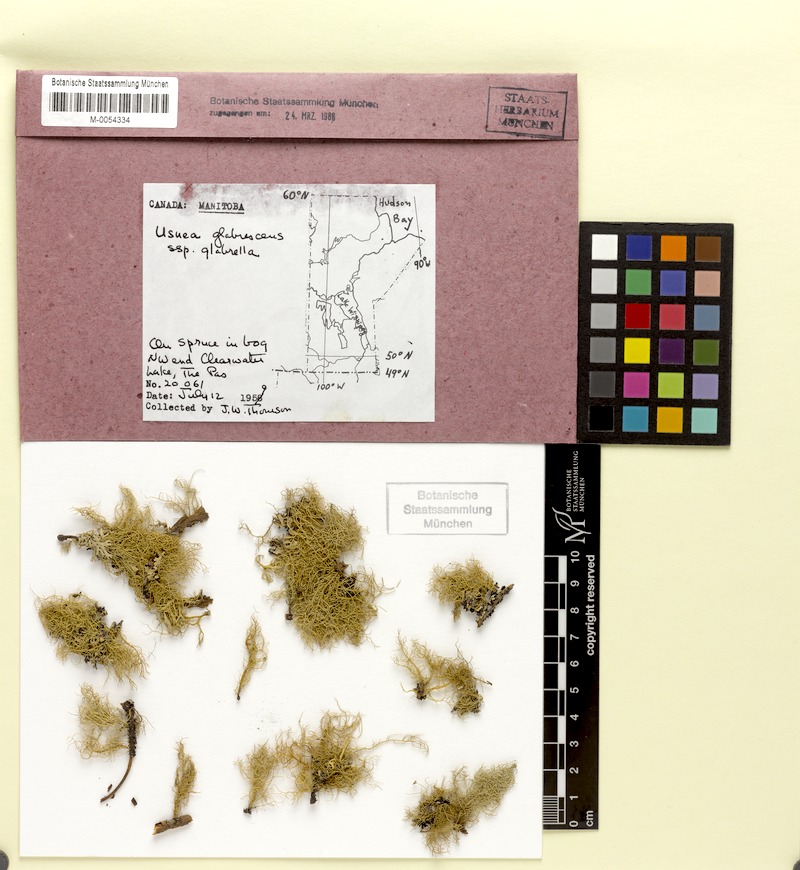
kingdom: Fungi
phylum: Ascomycota
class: Lecanoromycetes
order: Lecanorales
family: Parmeliaceae
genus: Usnea
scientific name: Usnea glabrescens
